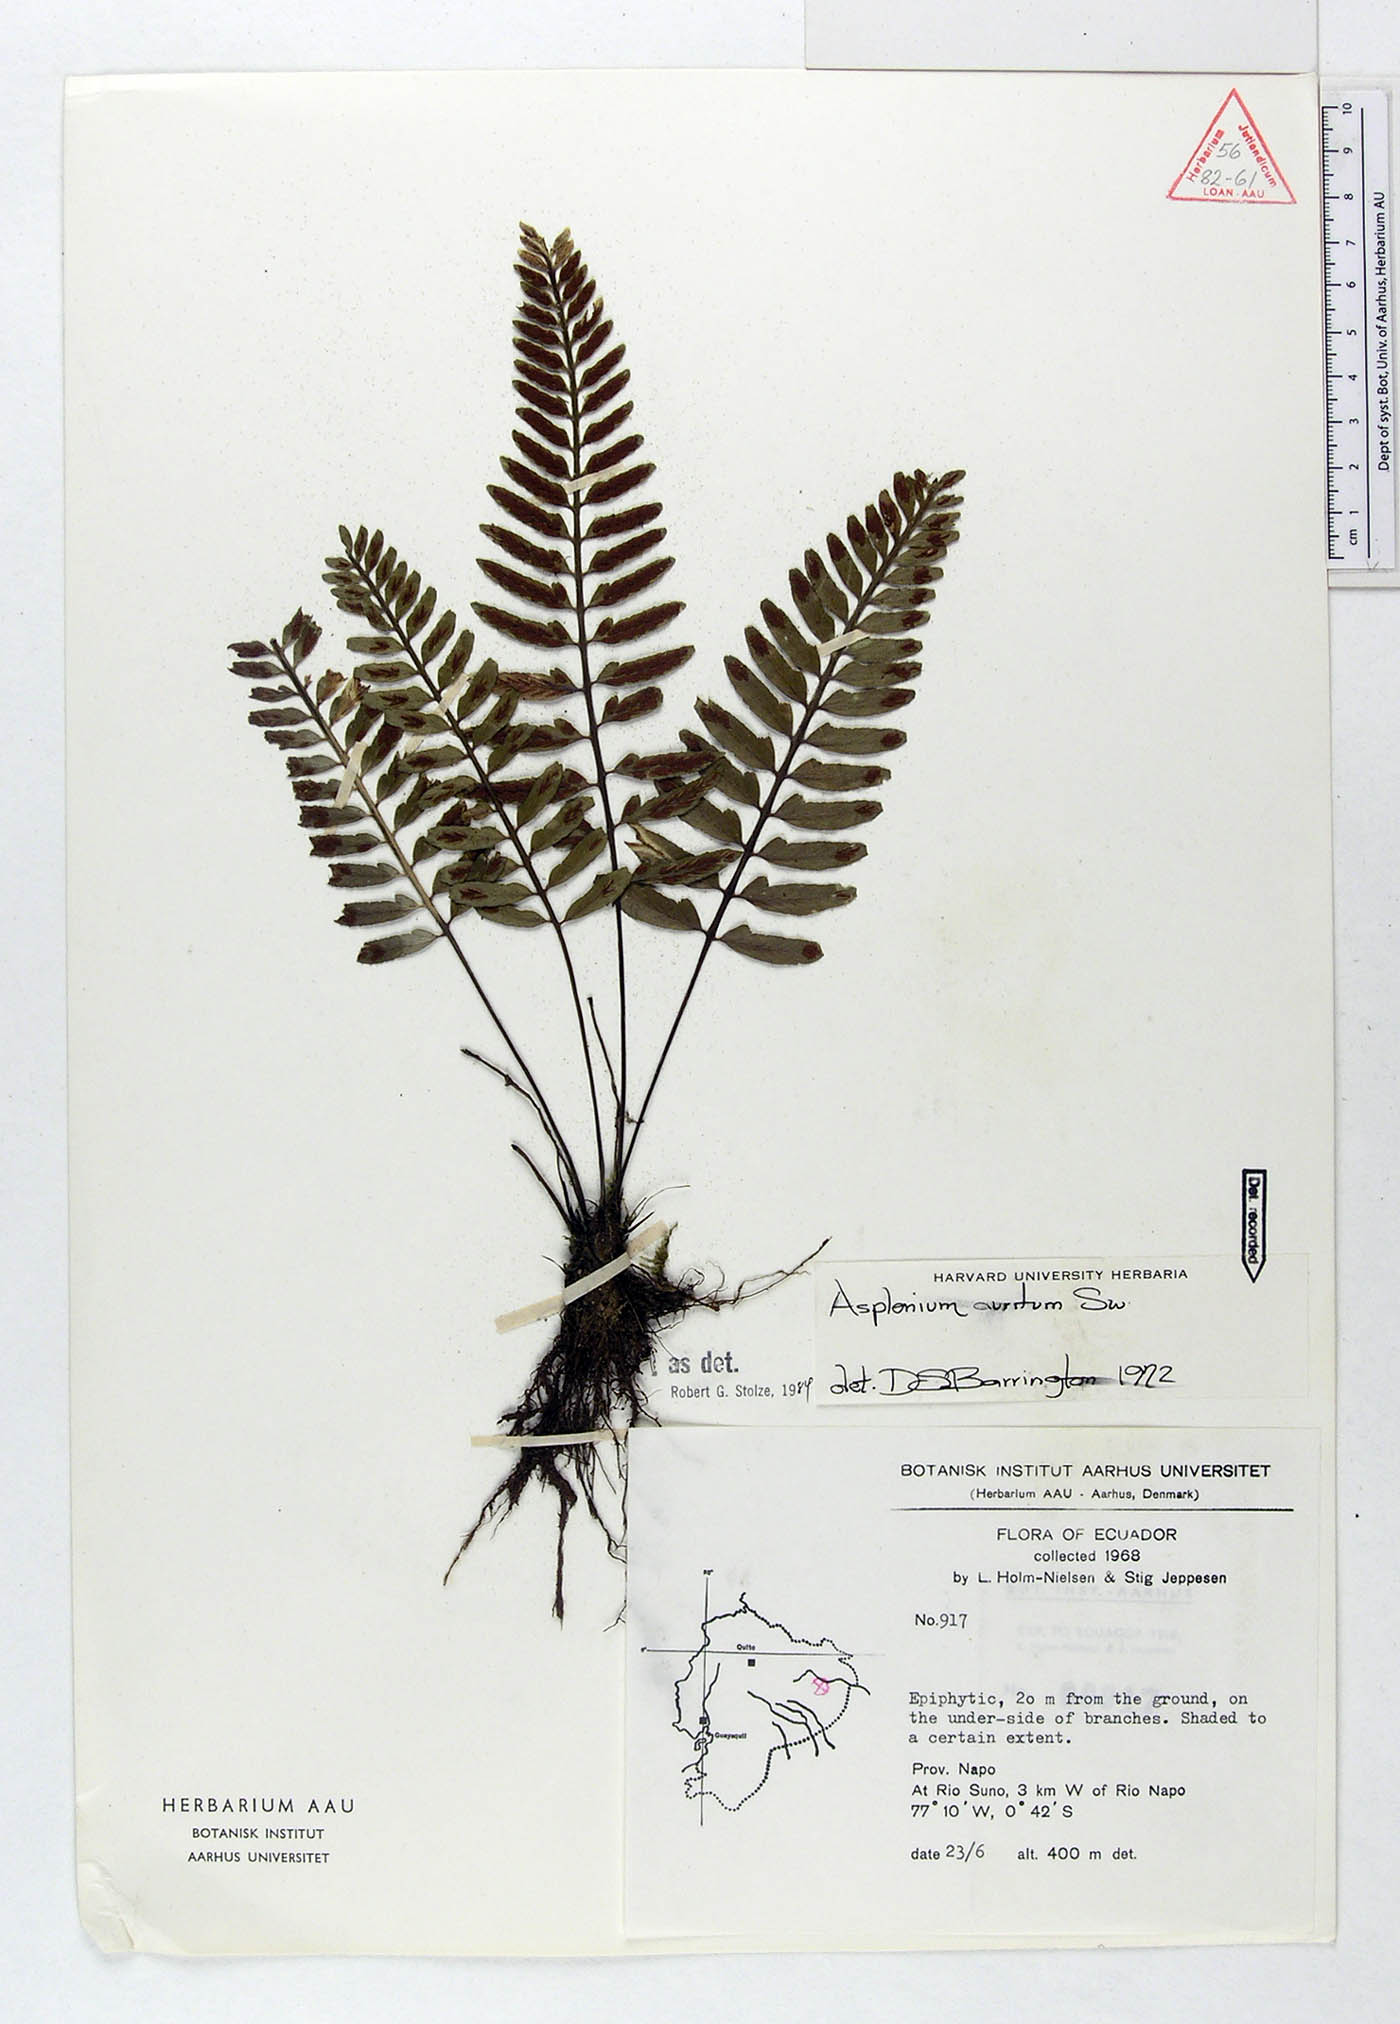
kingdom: Plantae
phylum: Tracheophyta
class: Polypodiopsida
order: Polypodiales
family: Aspleniaceae
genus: Asplenium
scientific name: Asplenium auritum
